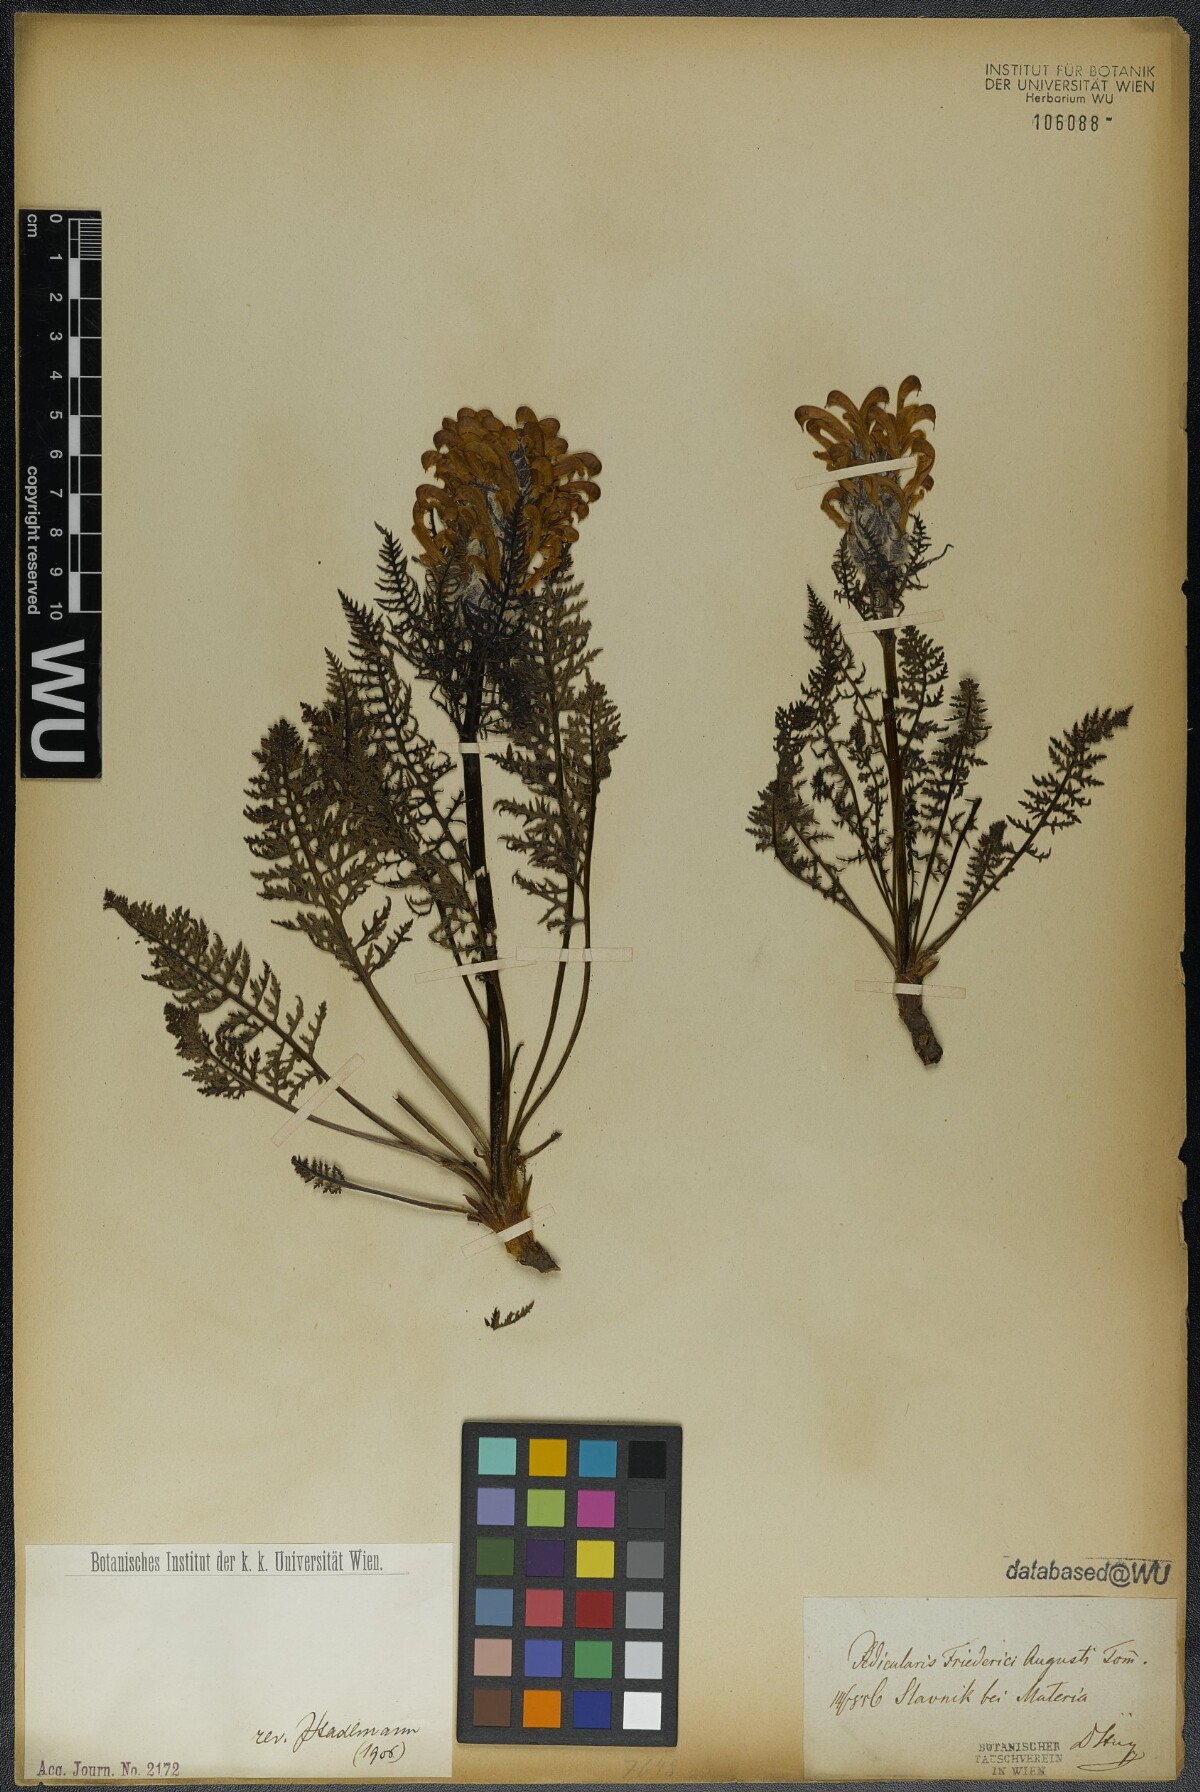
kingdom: Plantae
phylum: Tracheophyta
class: Magnoliopsida
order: Lamiales
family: Orobanchaceae
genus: Pedicularis
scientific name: Pedicularis friderici-augusti
